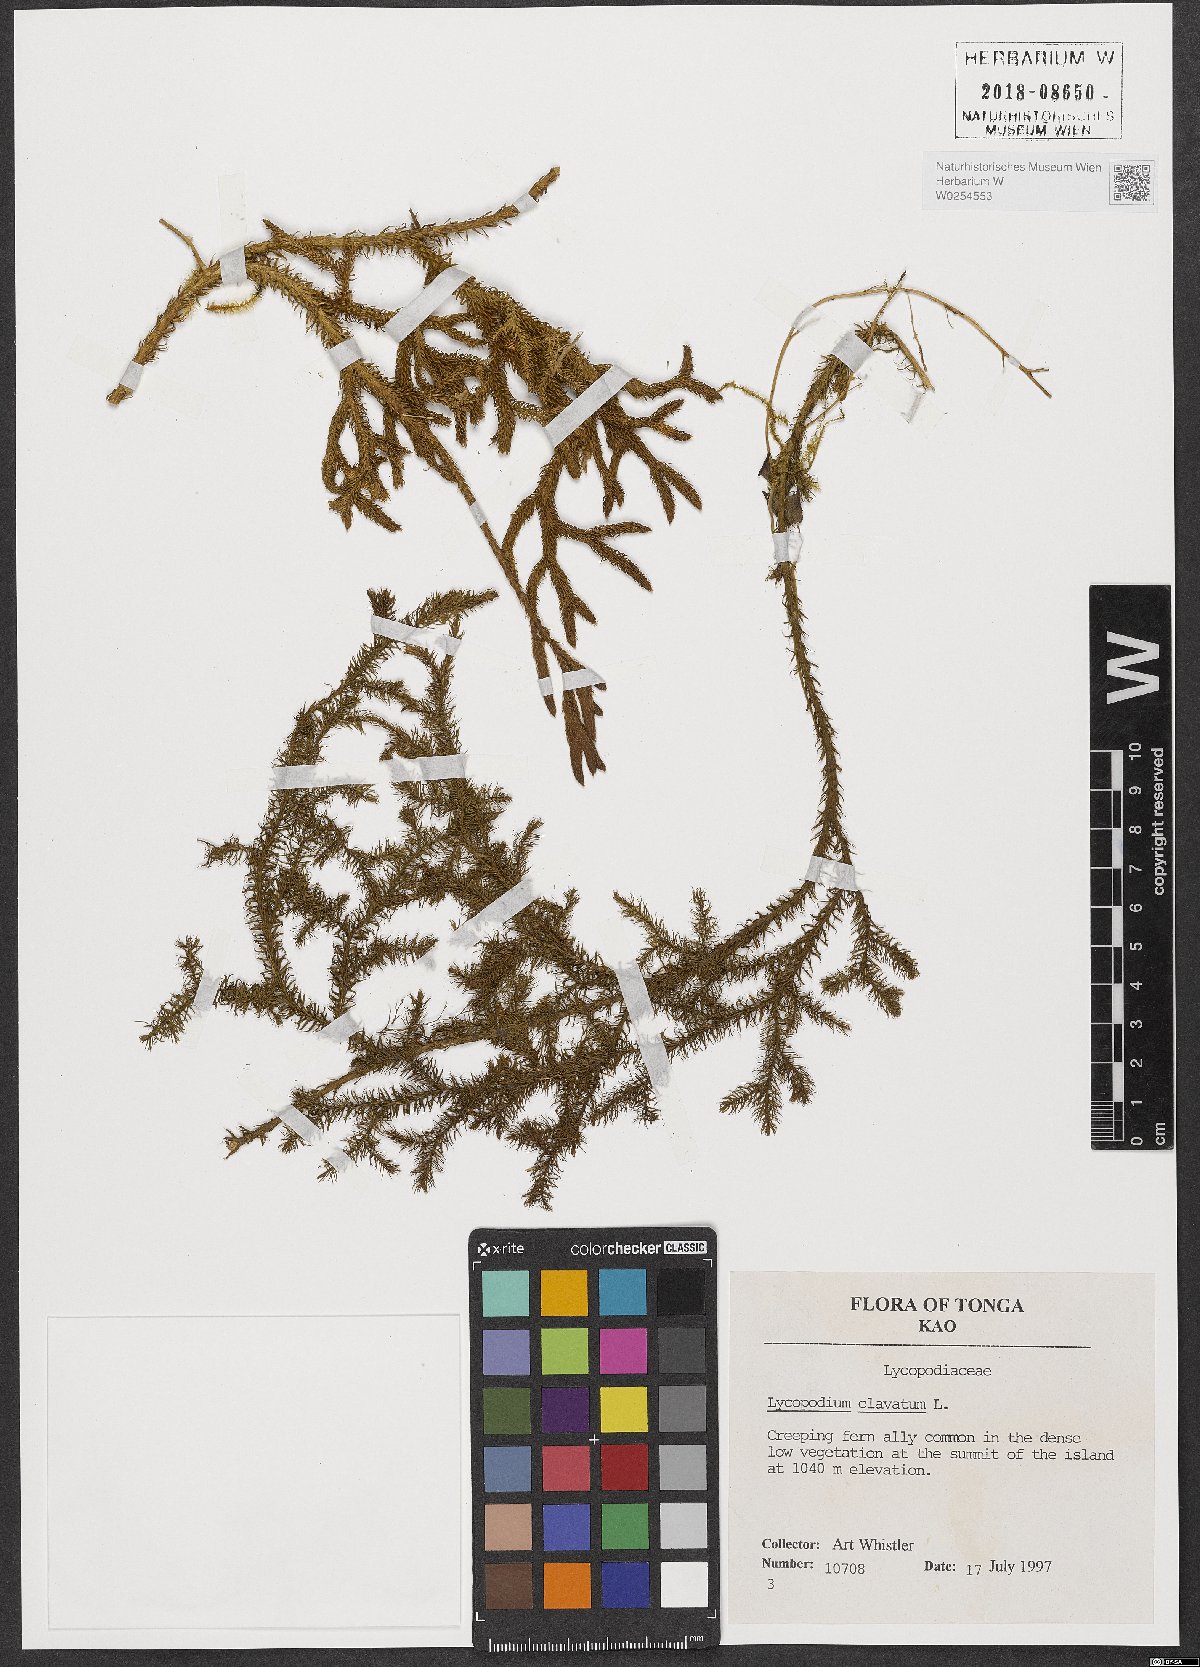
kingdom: Plantae
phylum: Tracheophyta
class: Lycopodiopsida
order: Lycopodiales
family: Lycopodiaceae
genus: Lycopodium
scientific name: Lycopodium clavatum
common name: Stag's-horn clubmoss
